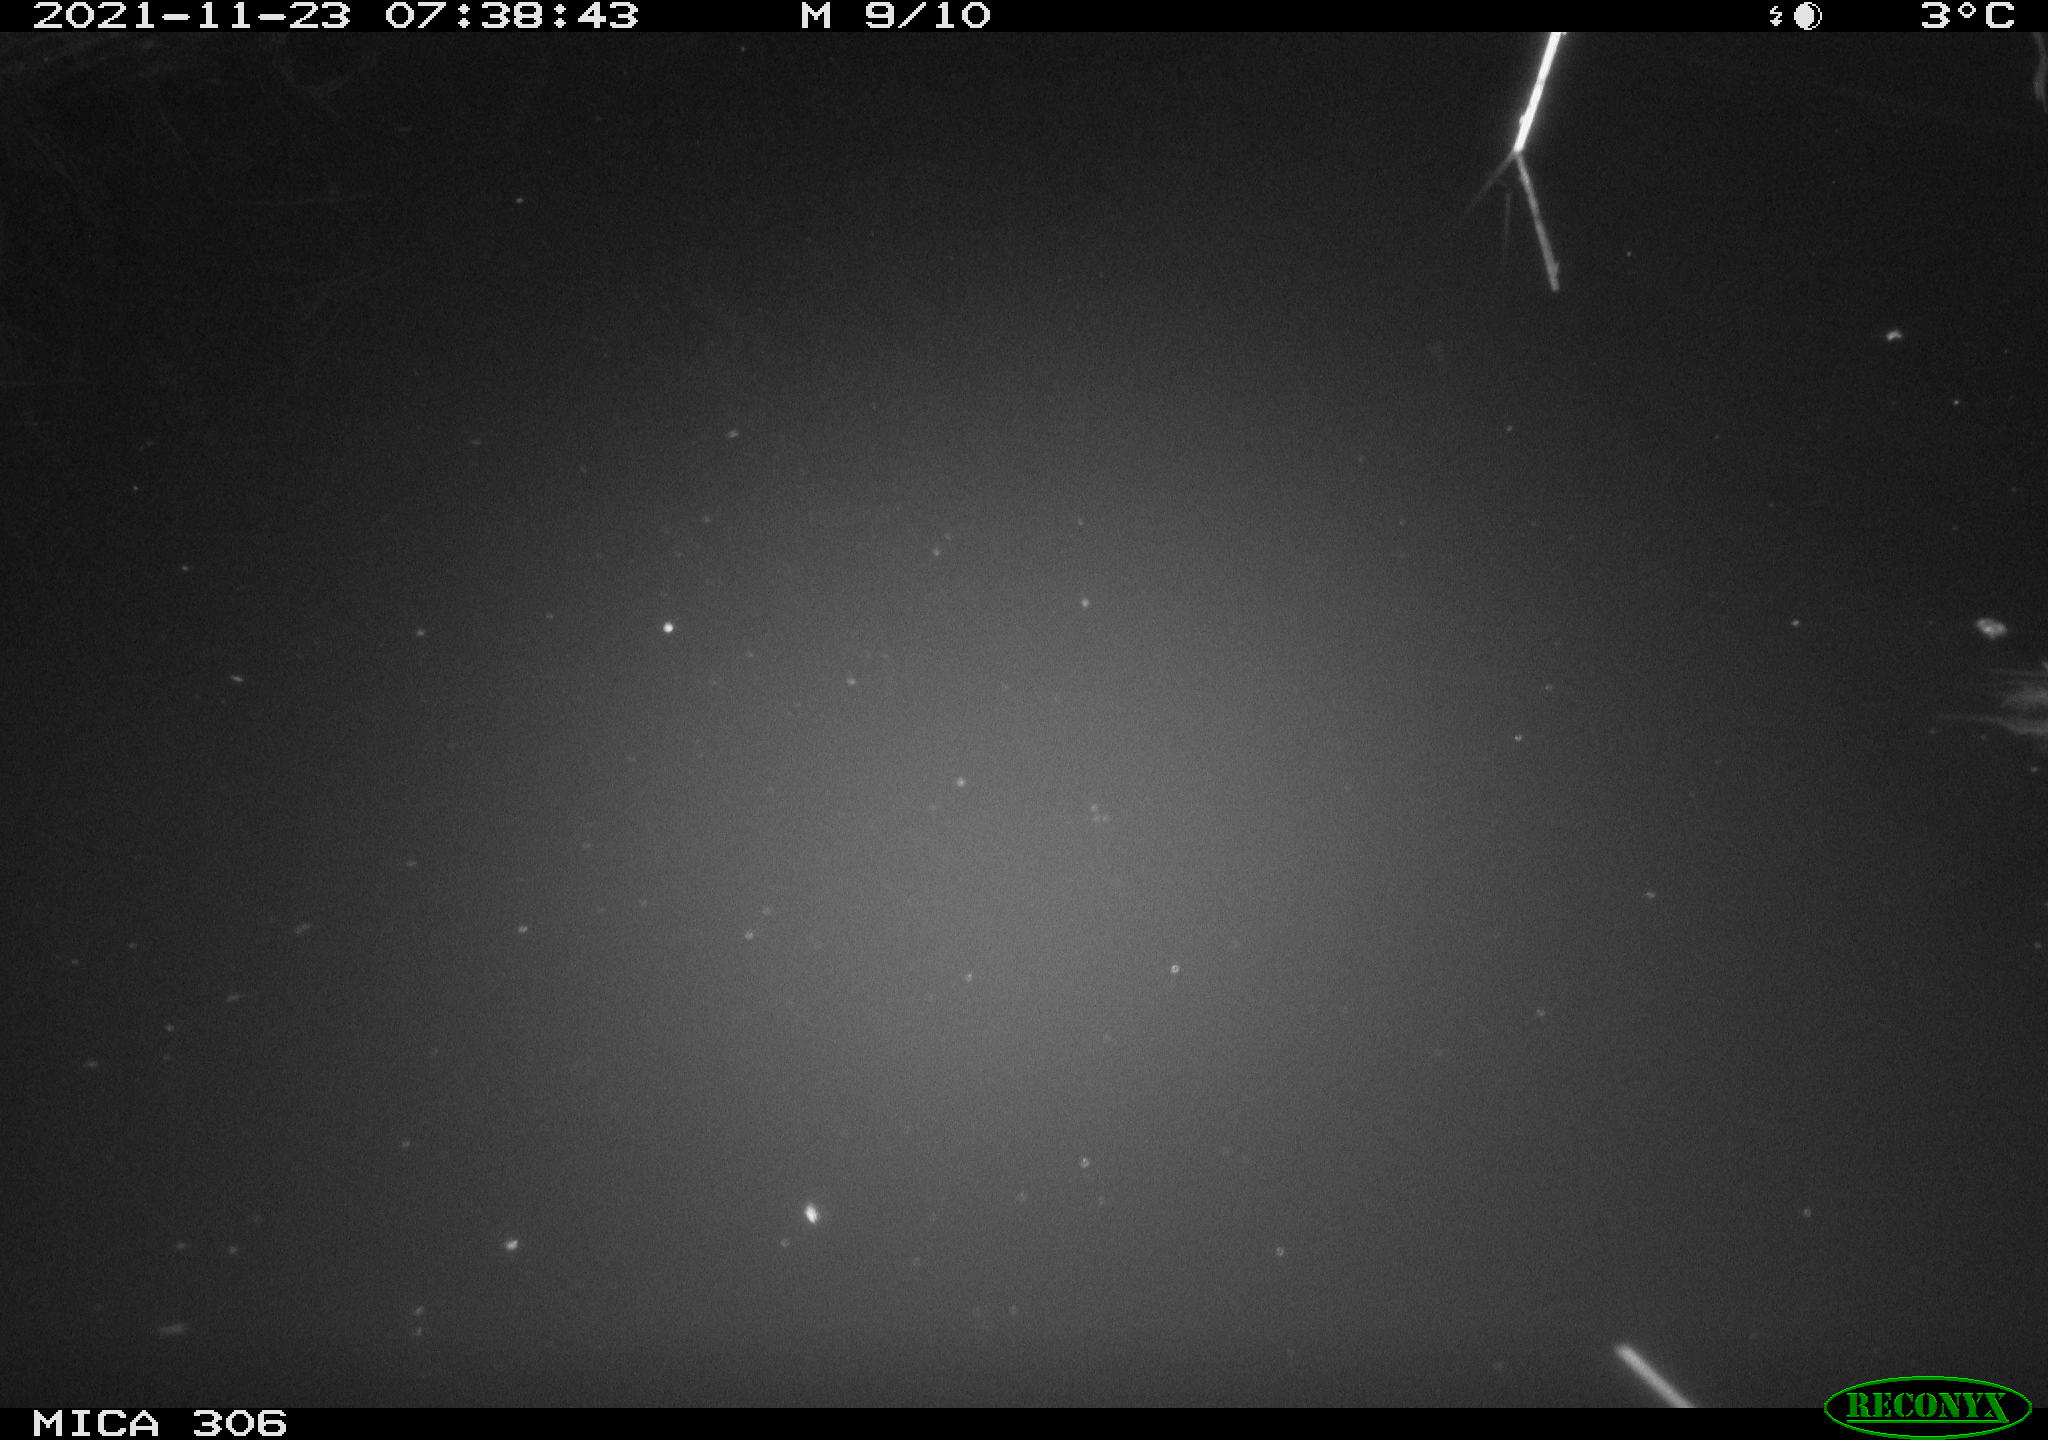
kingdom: Animalia
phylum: Chordata
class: Aves
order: Gruiformes
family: Rallidae
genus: Fulica
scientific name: Fulica atra
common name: Eurasian coot
